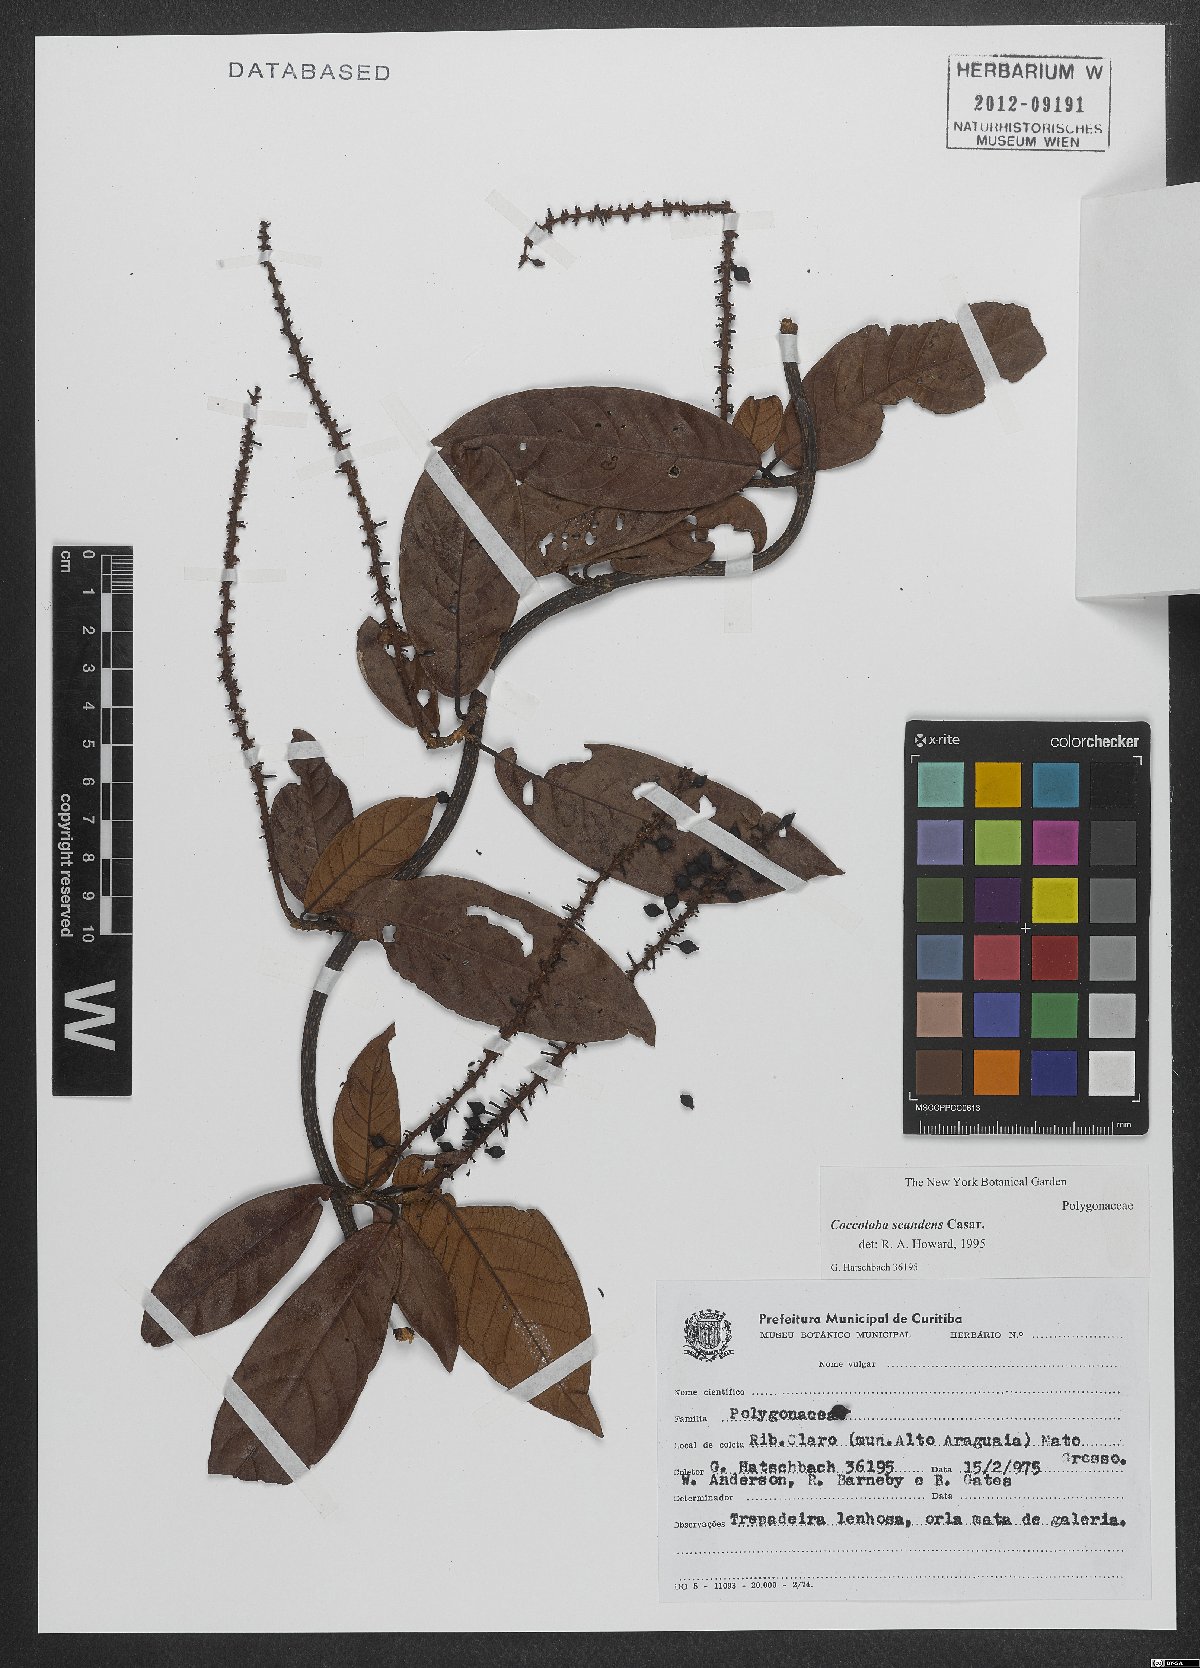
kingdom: Plantae
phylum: Tracheophyta
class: Magnoliopsida
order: Caryophyllales
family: Polygonaceae
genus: Coccoloba
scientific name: Coccoloba scandens
